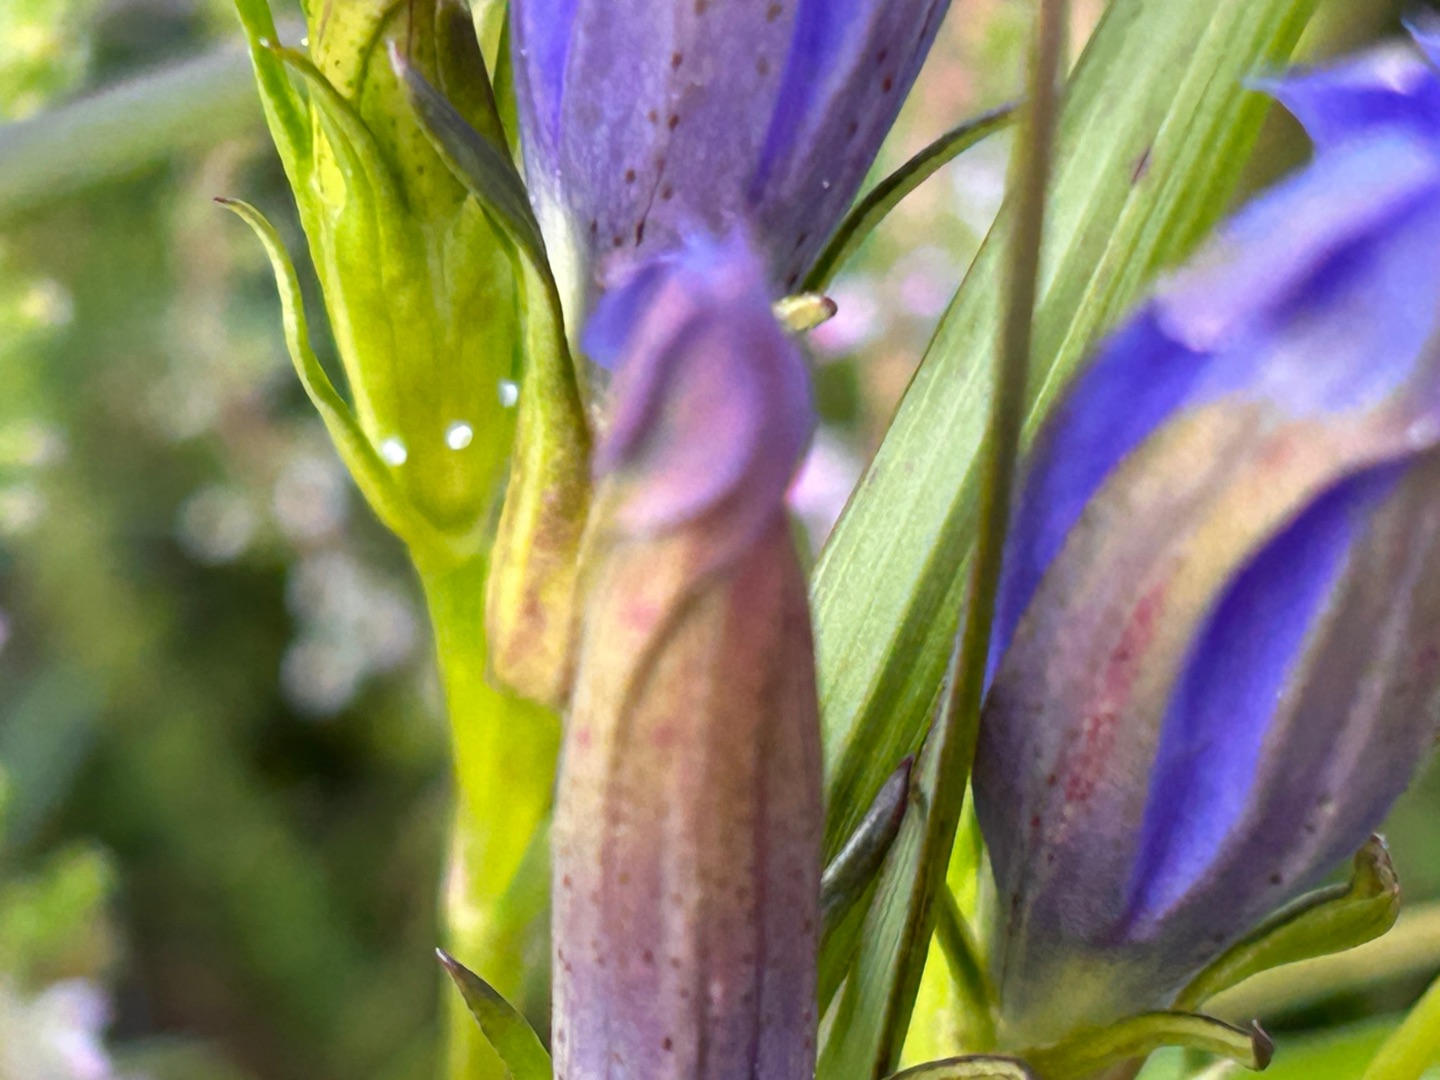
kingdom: Plantae
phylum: Tracheophyta
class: Magnoliopsida
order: Gentianales
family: Gentianaceae
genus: Gentiana
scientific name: Gentiana pneumonanthe
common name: Klokke-ensian
